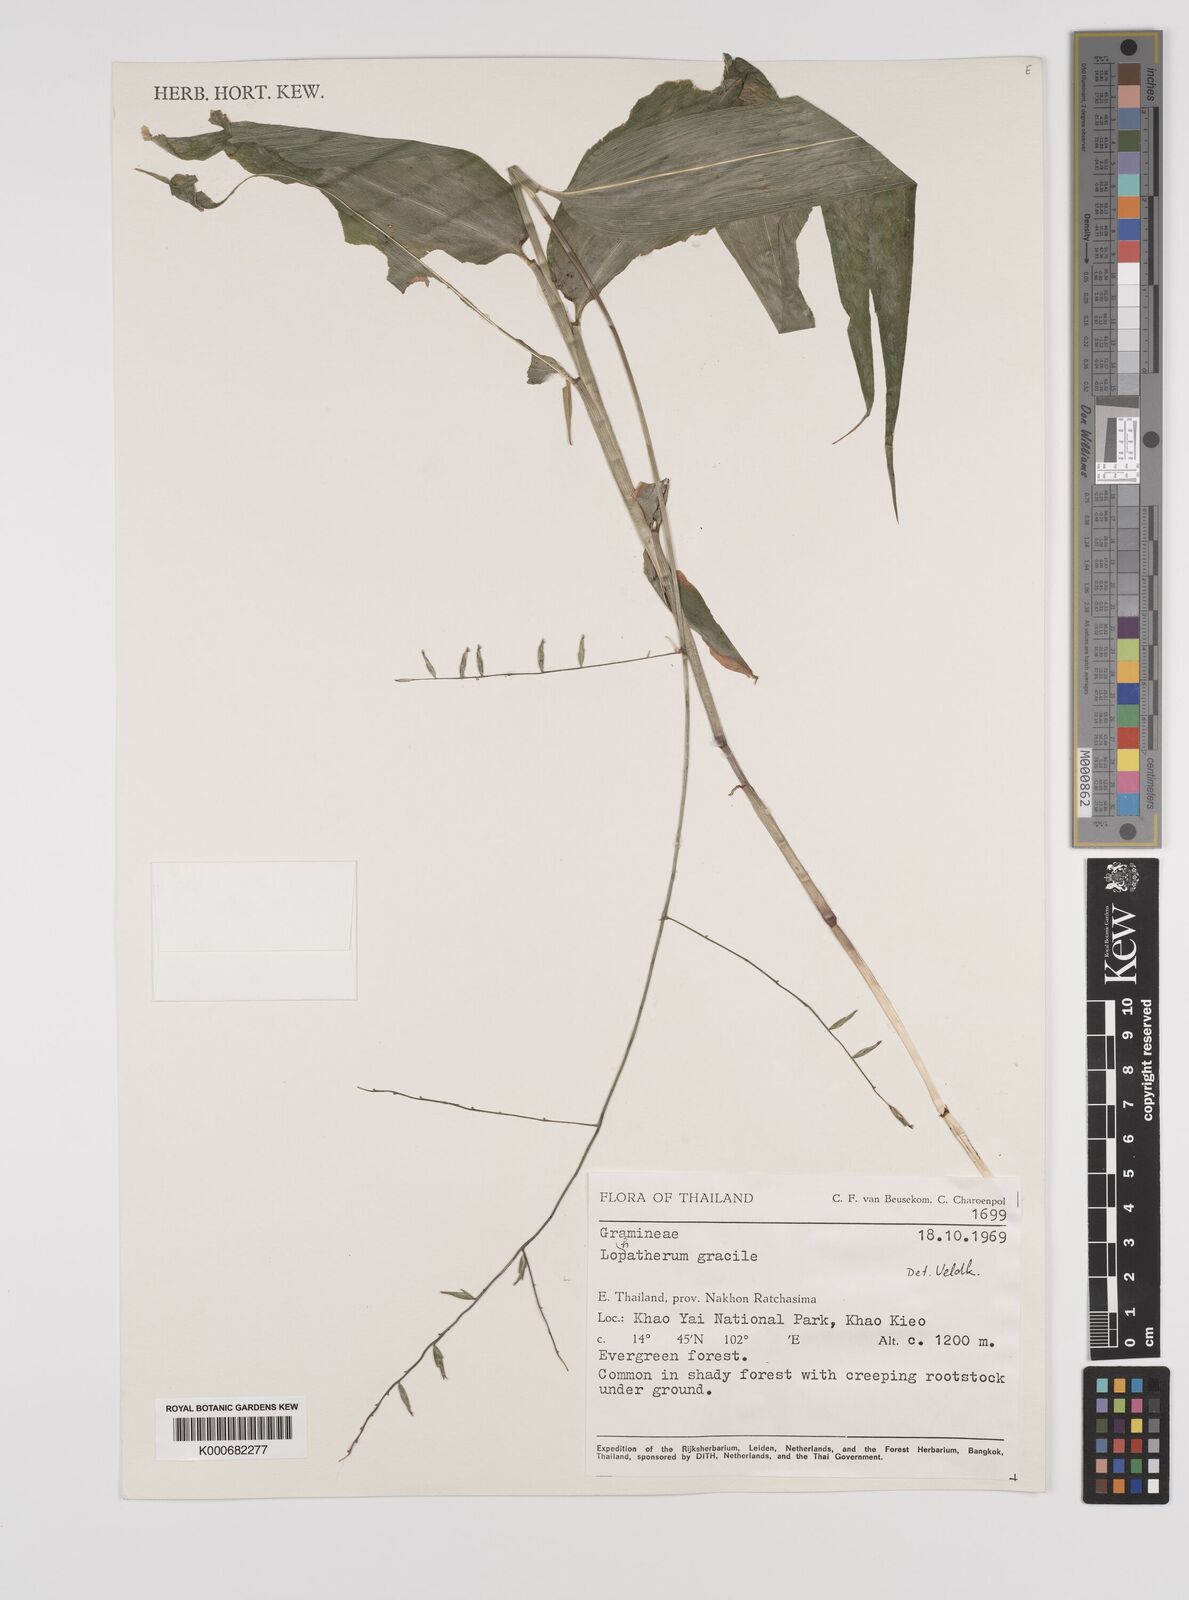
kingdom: Plantae
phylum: Tracheophyta
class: Liliopsida
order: Poales
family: Poaceae
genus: Lophatherum
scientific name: Lophatherum gracile
